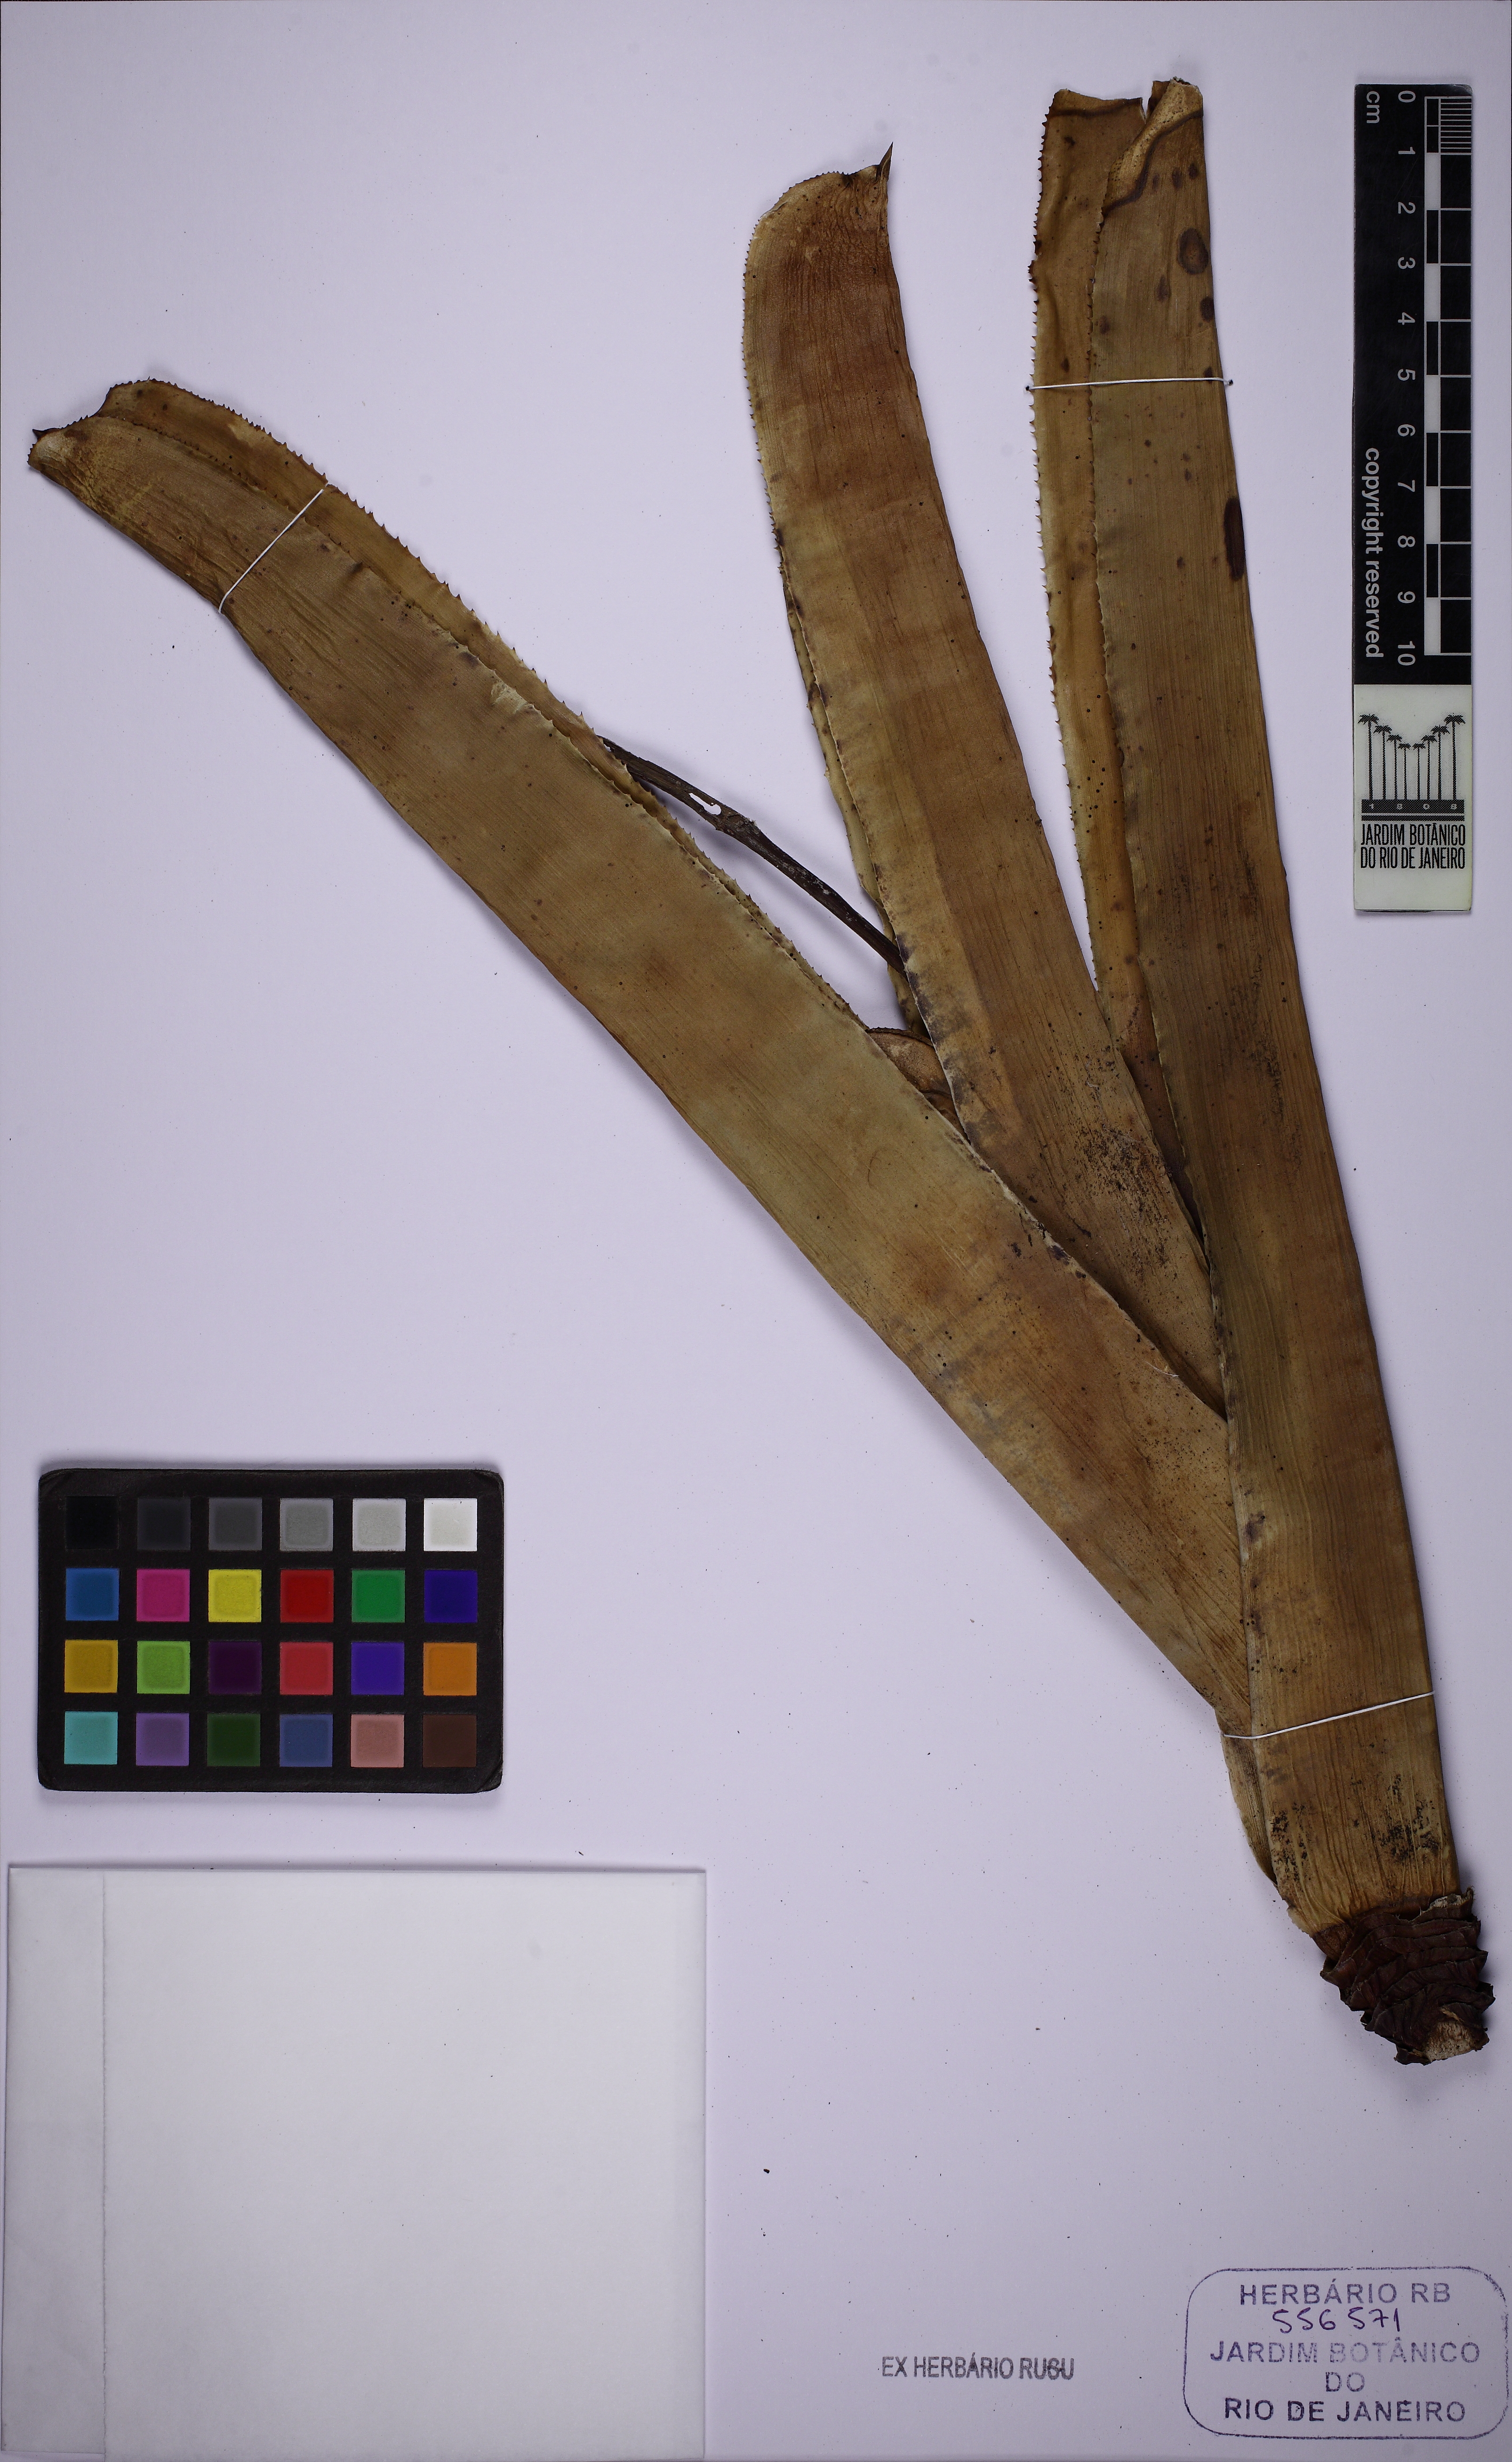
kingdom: Plantae
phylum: Tracheophyta
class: Liliopsida
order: Poales
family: Bromeliaceae
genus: Quesnelia
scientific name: Quesnelia marmorata
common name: Grecian urnplant
